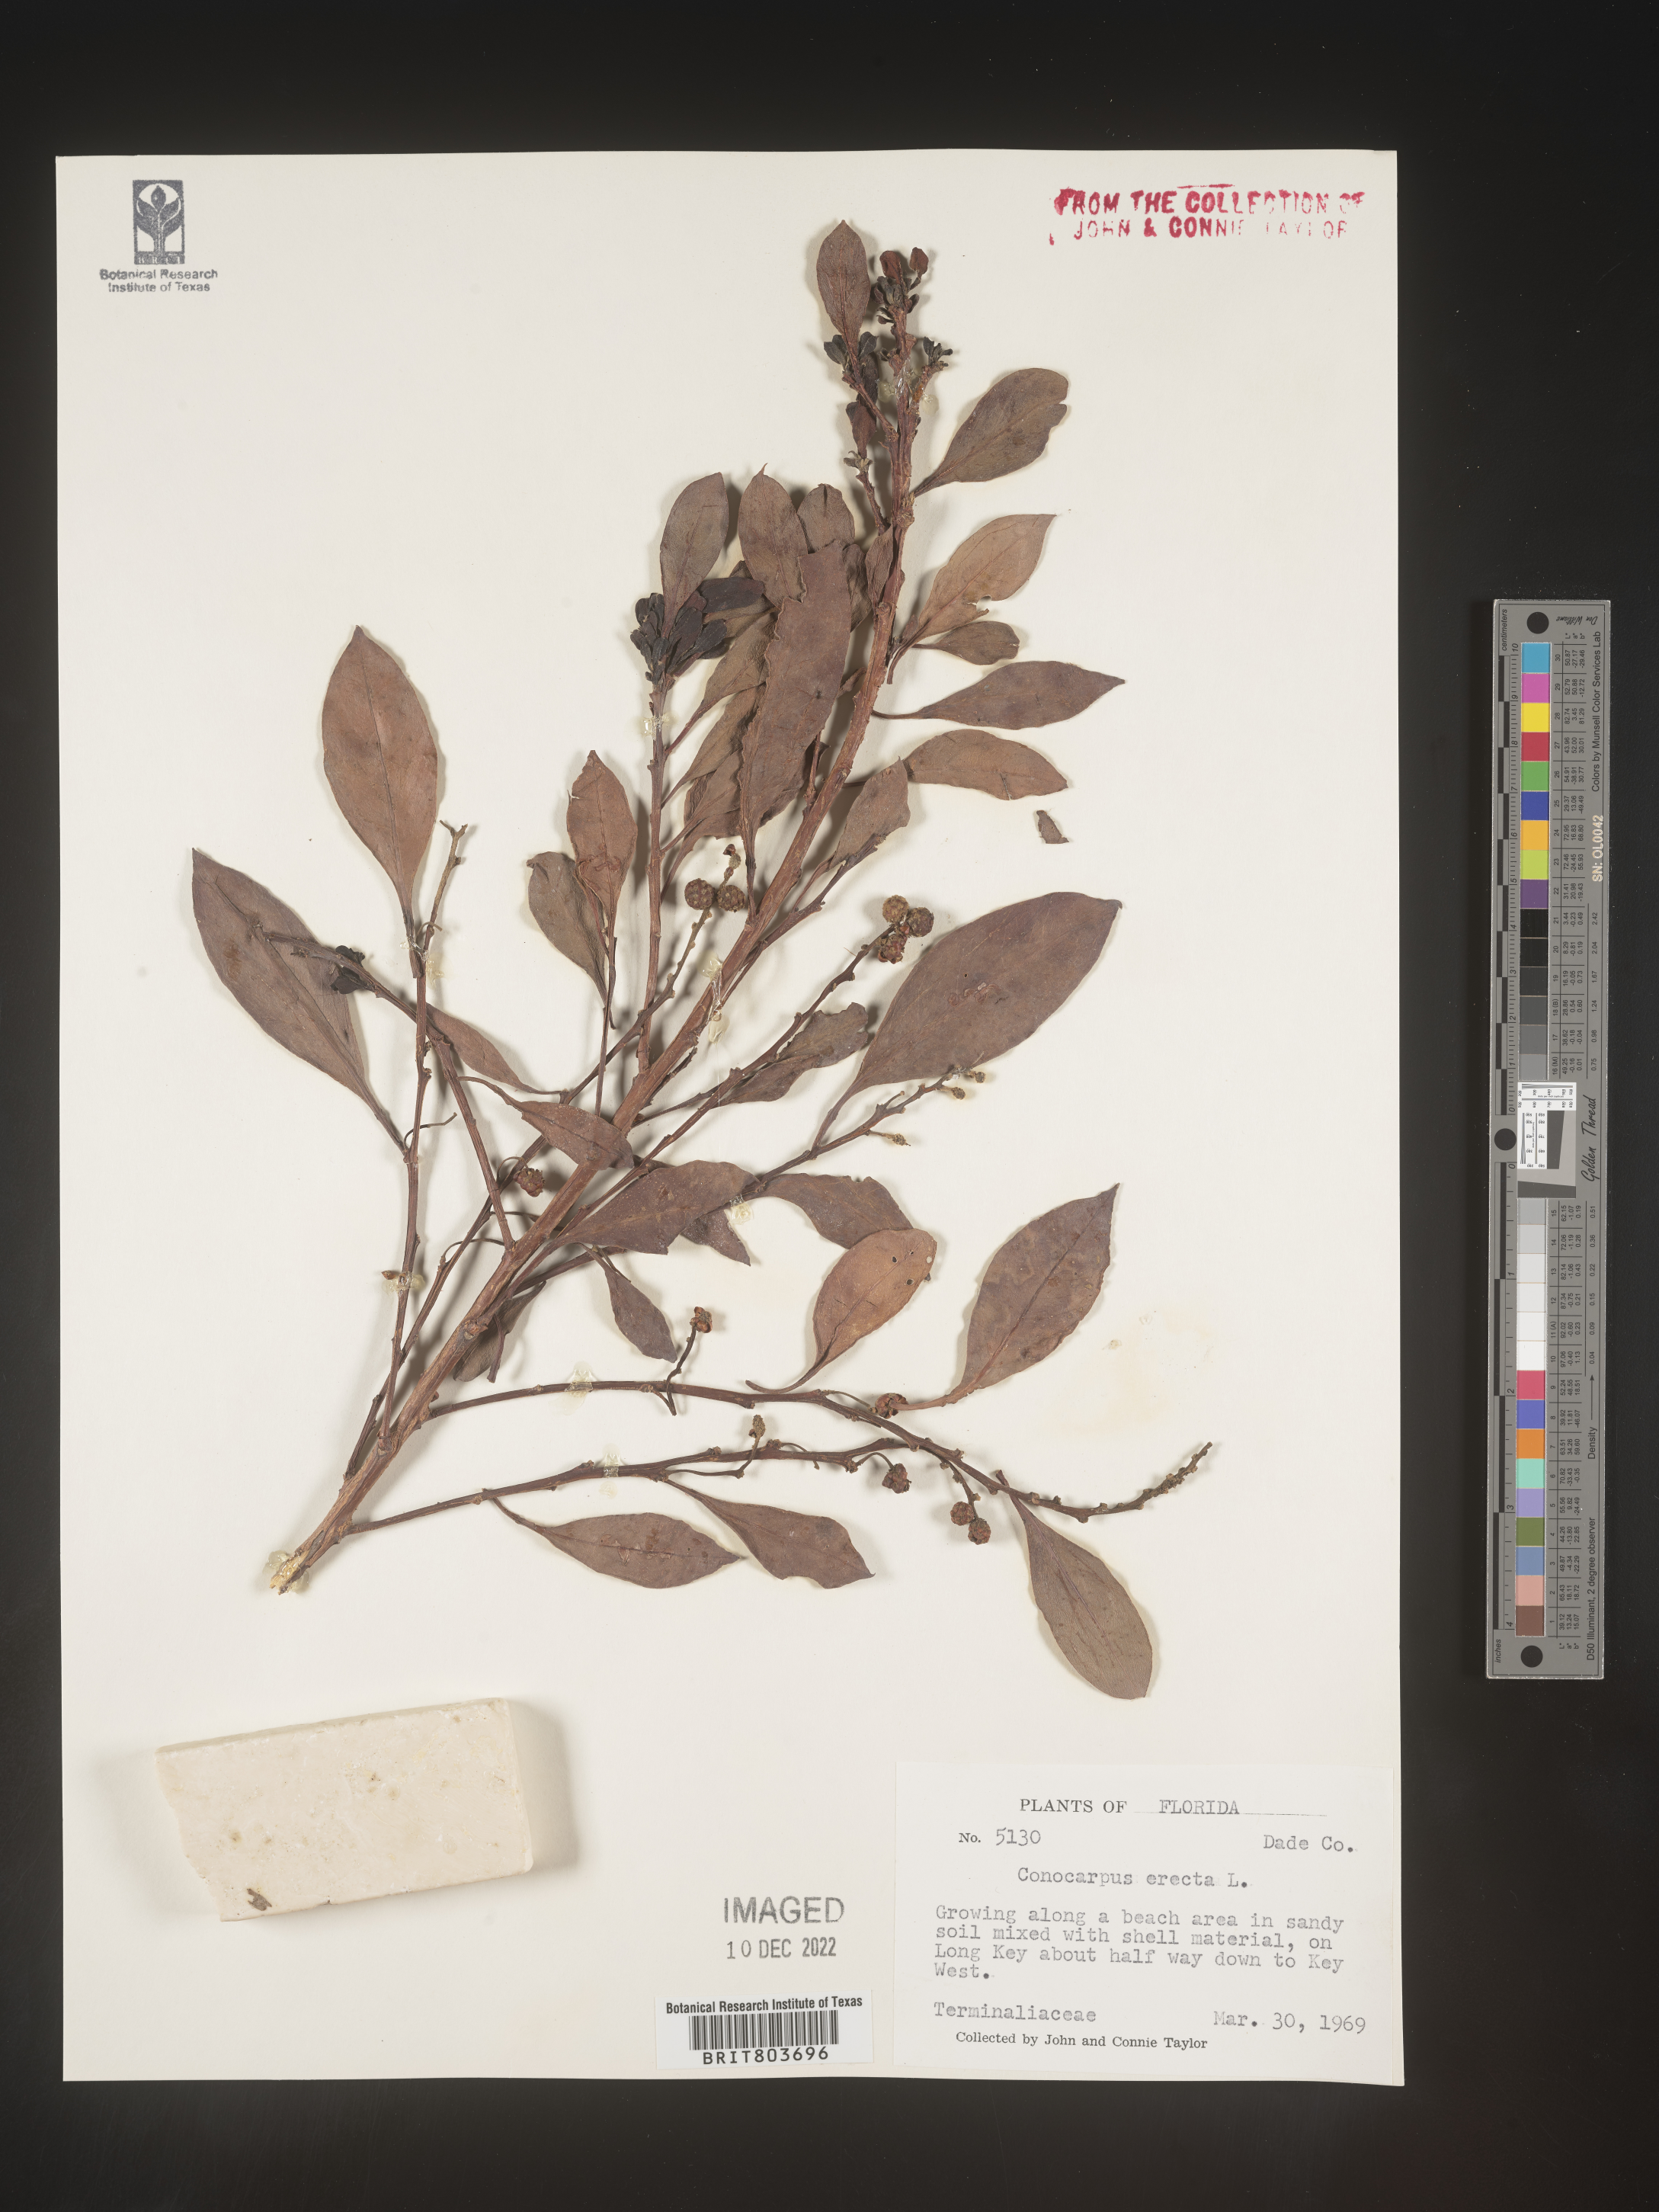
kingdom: Plantae
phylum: Tracheophyta
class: Magnoliopsida
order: Myrtales
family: Combretaceae
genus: Conocarpus
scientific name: Conocarpus erectus
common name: Button mangrove
